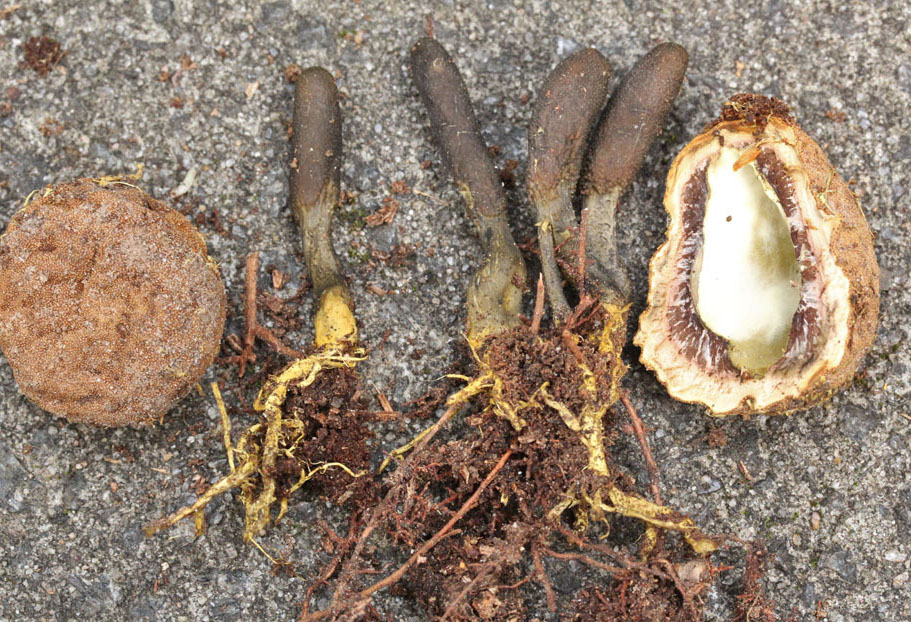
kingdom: Fungi
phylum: Ascomycota
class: Sordariomycetes
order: Hypocreales
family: Ophiocordycipitaceae
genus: Tolypocladium
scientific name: Tolypocladium ophioglossoides
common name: slank snyltekølle
